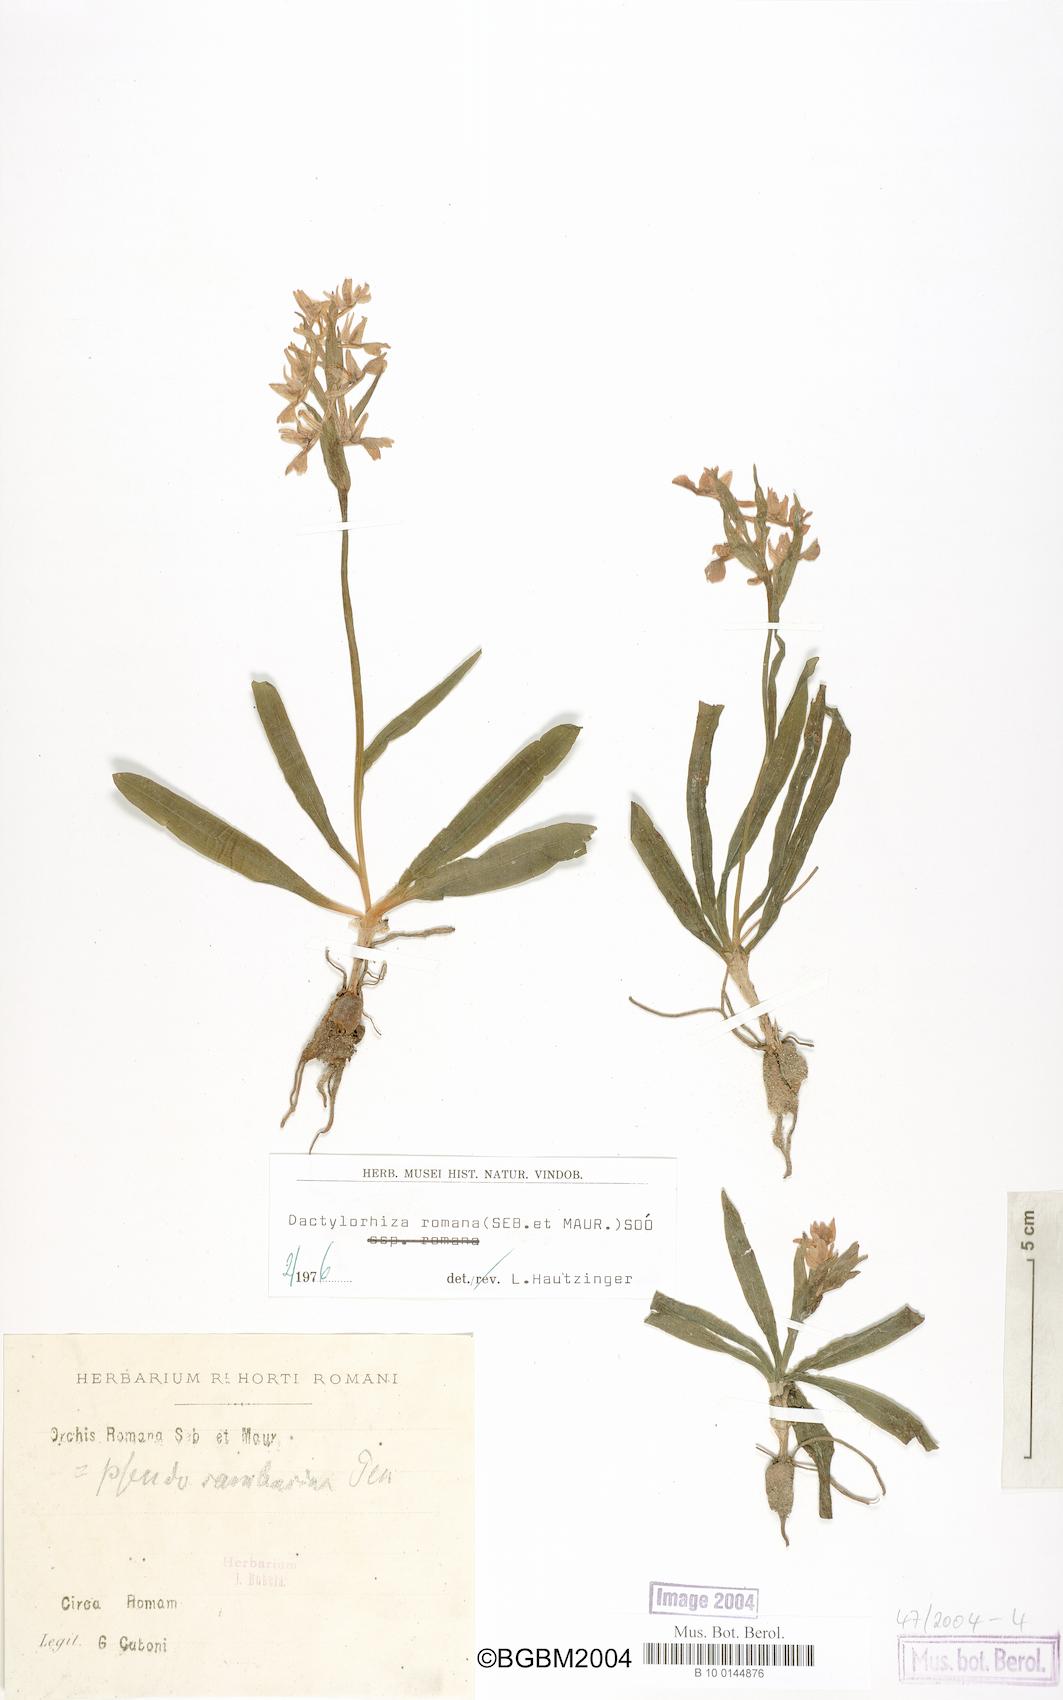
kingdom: Plantae
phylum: Tracheophyta
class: Liliopsida
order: Asparagales
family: Orchidaceae
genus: Dactylorhiza
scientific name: Dactylorhiza romana
